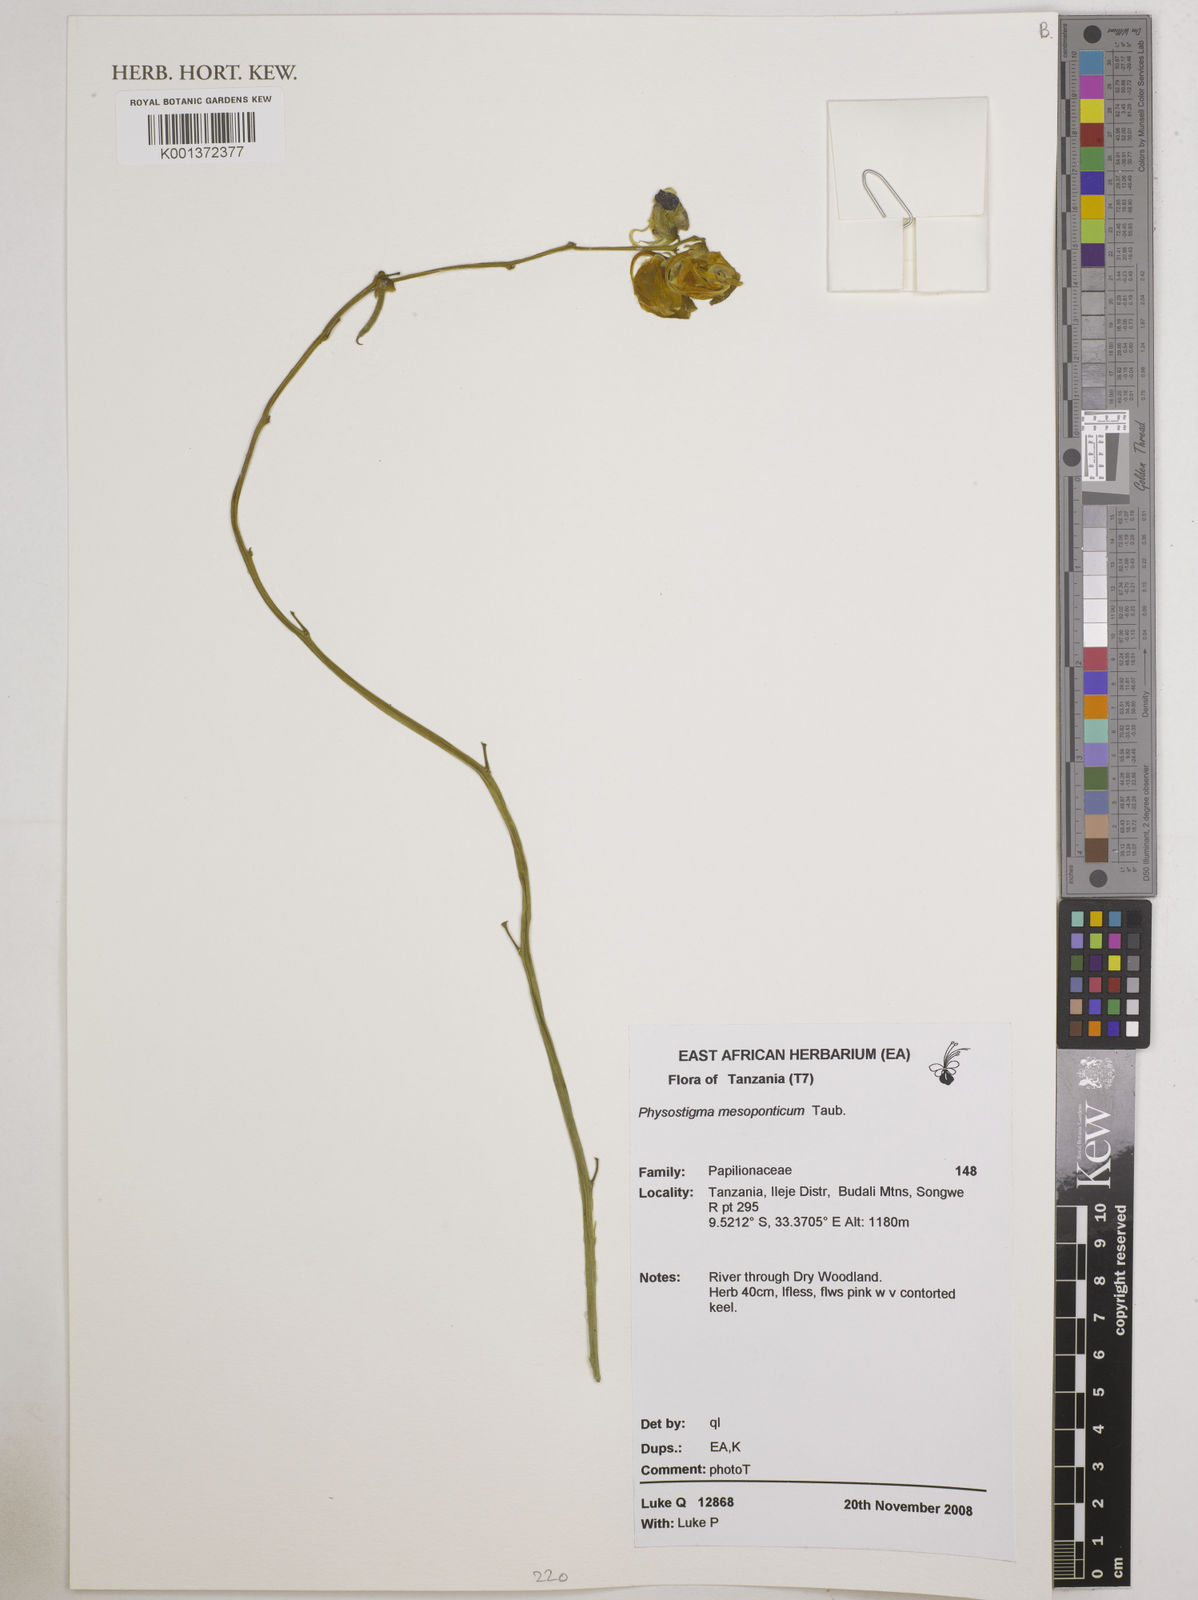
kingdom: Plantae
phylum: Tracheophyta
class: Magnoliopsida
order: Fabales
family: Fabaceae
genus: Physostigma
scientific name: Physostigma mesoponticum
